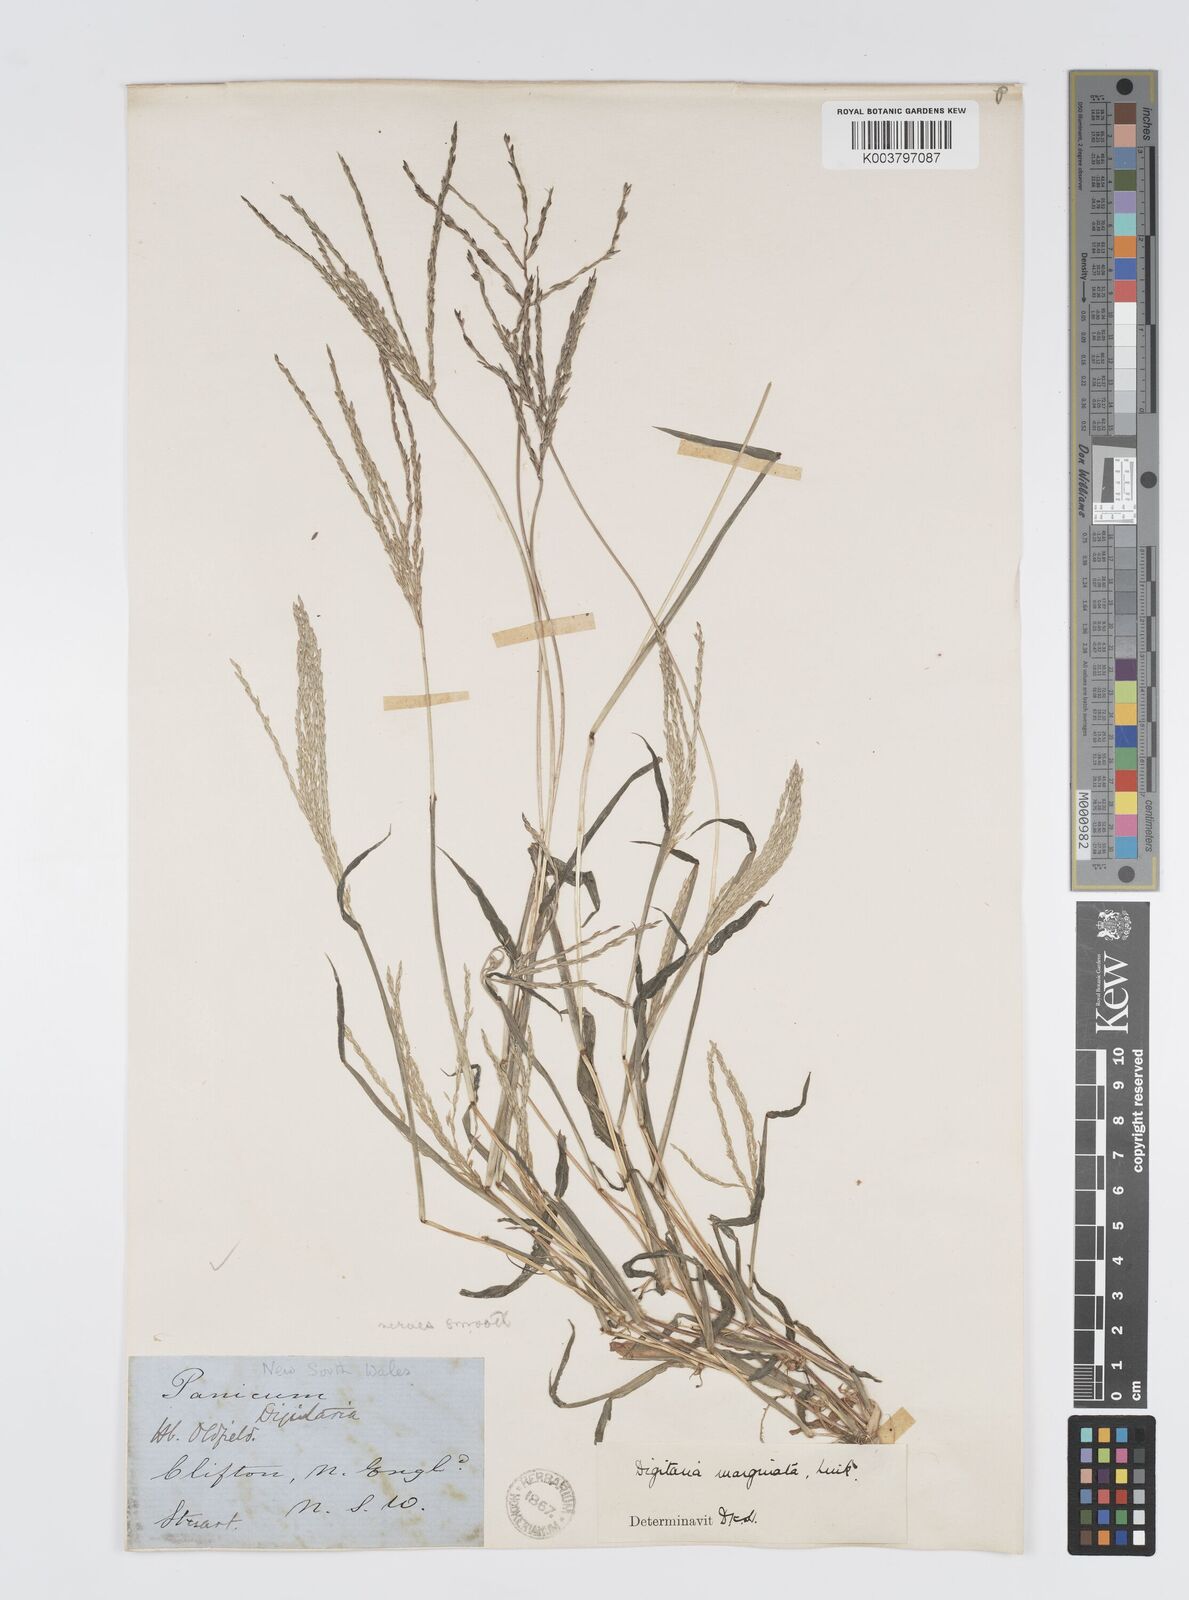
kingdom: Plantae
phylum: Tracheophyta
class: Liliopsida
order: Poales
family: Poaceae
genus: Digitaria
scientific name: Digitaria ciliaris
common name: Tropical finger-grass
